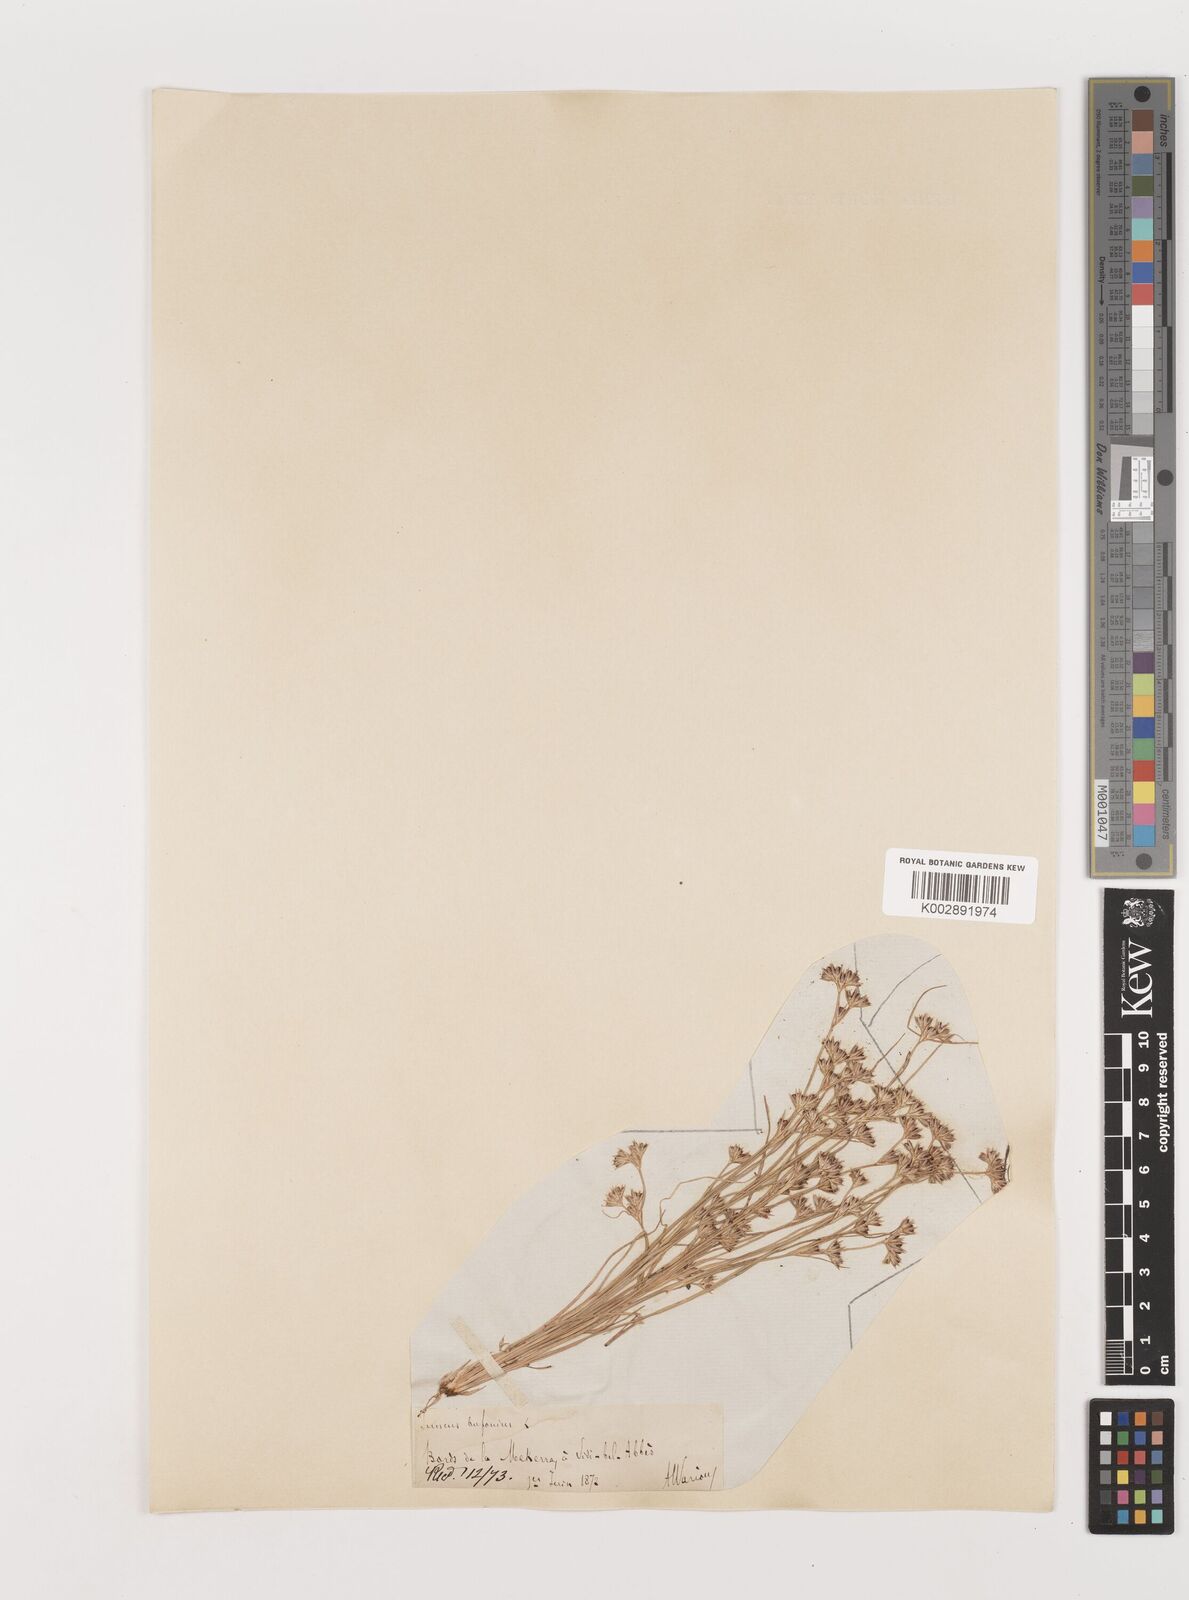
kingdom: Plantae
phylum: Tracheophyta
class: Liliopsida
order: Poales
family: Juncaceae
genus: Juncus
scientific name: Juncus bufonius
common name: Toad rush
